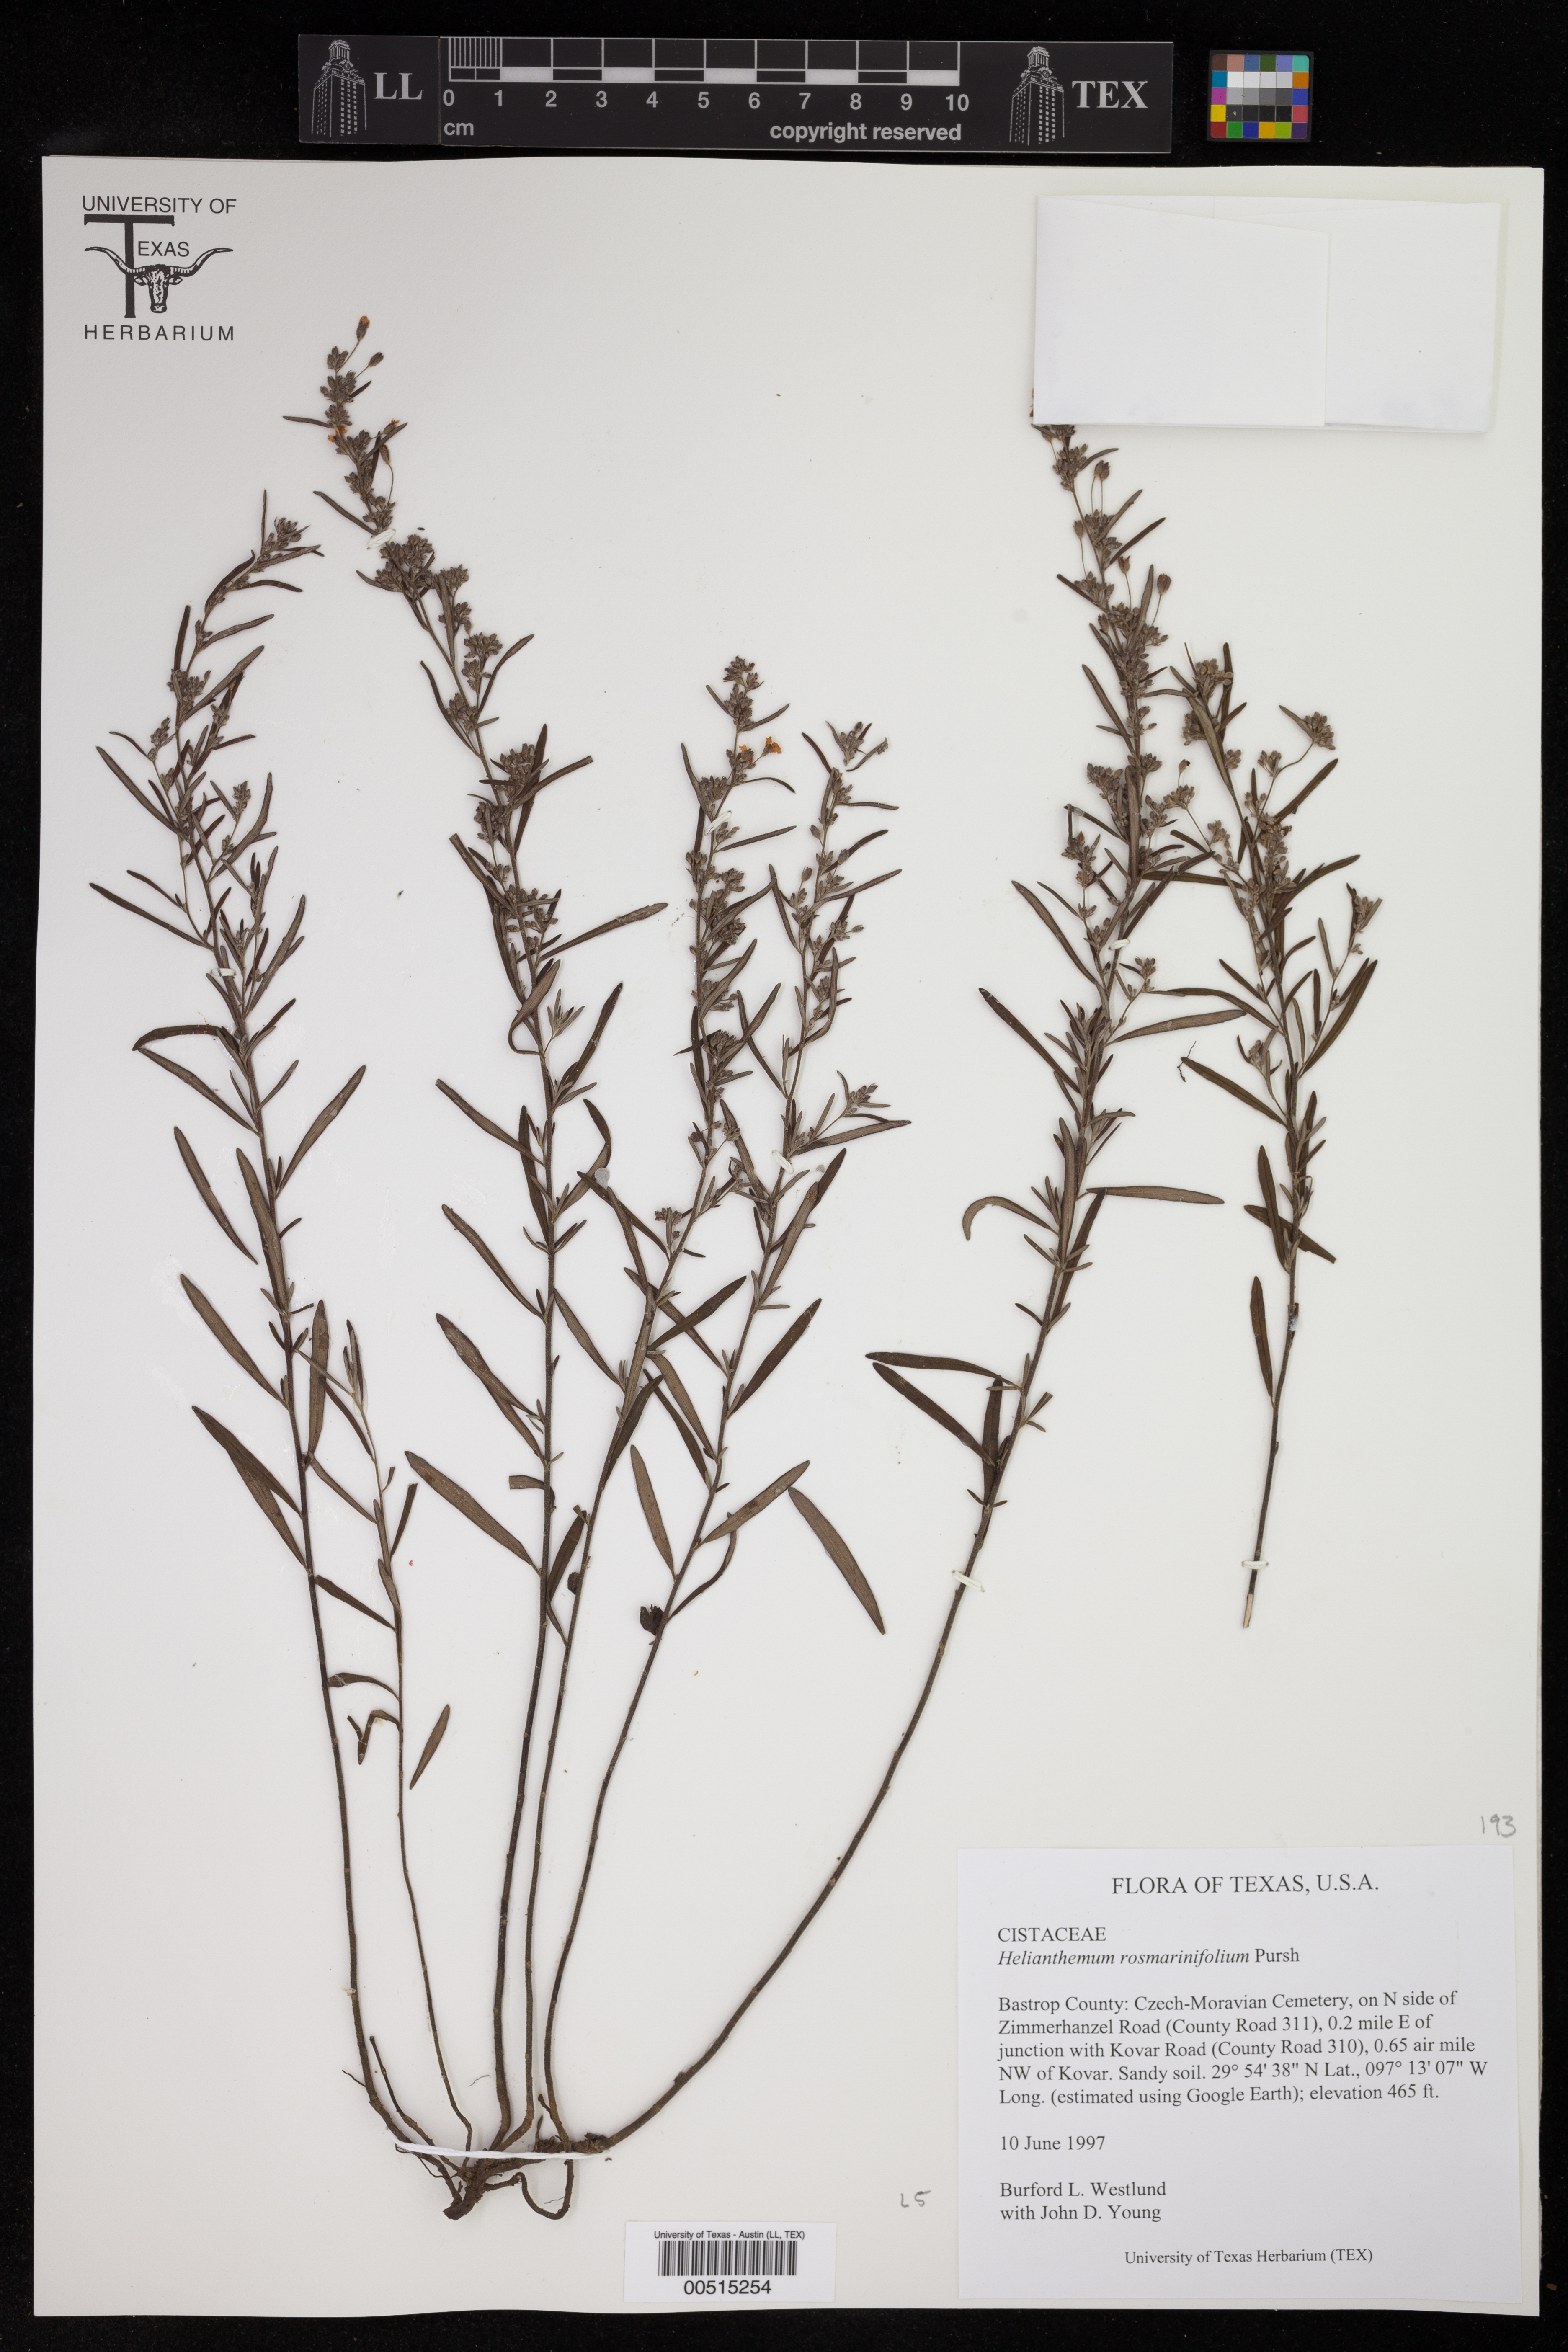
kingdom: Plantae
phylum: Tracheophyta
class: Magnoliopsida
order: Malvales
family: Cistaceae
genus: Helianthemum
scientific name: Helianthemum rosmarinifolium
